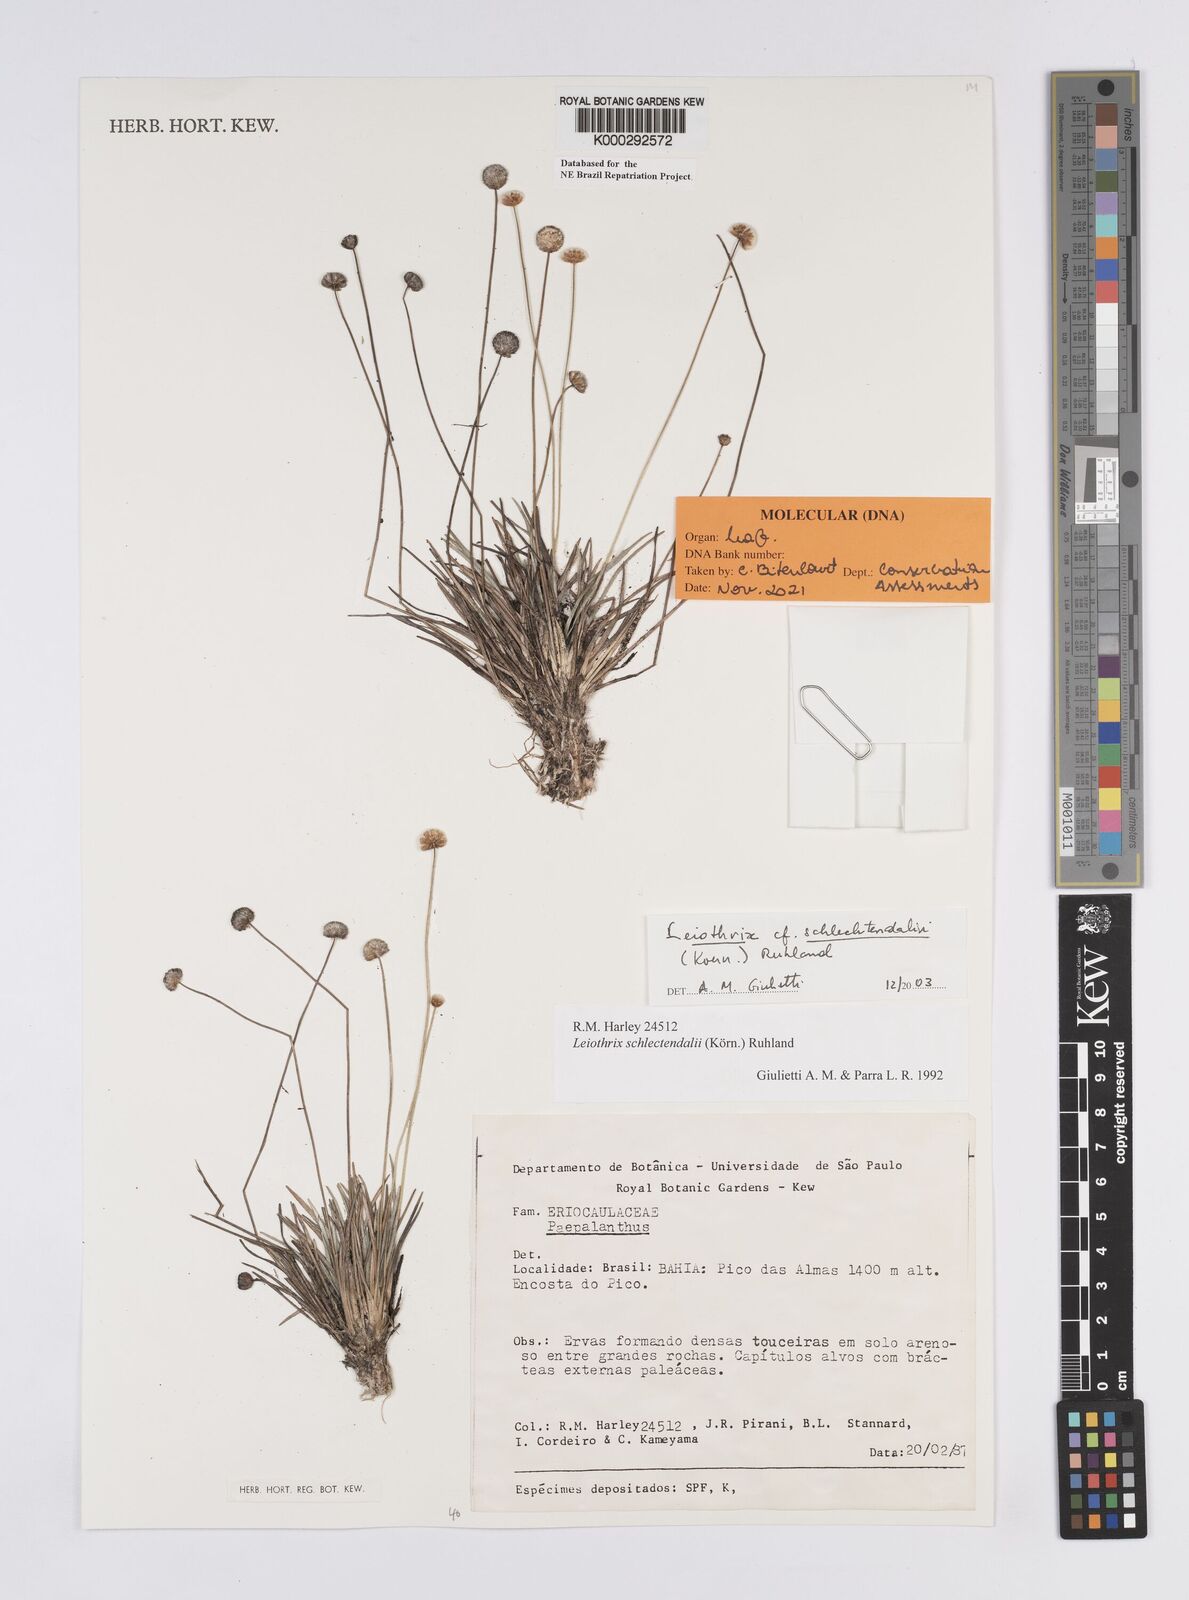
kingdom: Plantae
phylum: Tracheophyta
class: Liliopsida
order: Poales
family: Eriocaulaceae
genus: Leiothrix
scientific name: Leiothrix schlechtendalii
